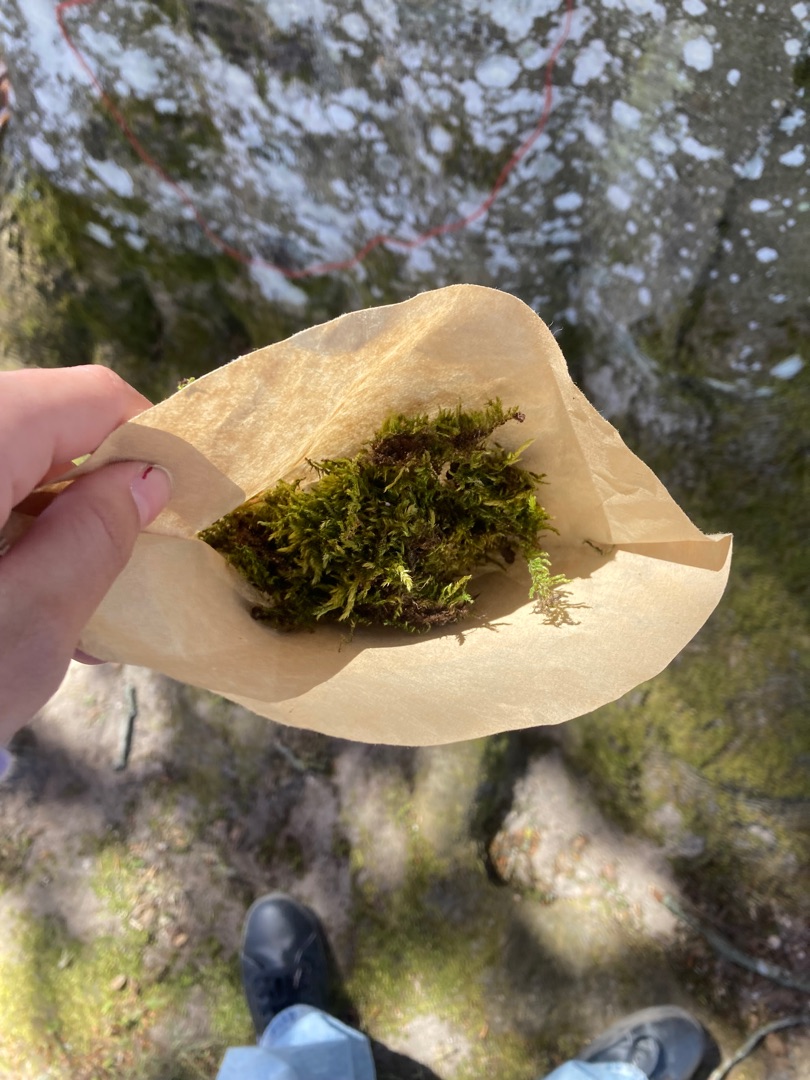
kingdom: Plantae
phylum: Bryophyta
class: Bryopsida
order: Hypnales
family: Hypnaceae
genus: Hypnum
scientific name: Hypnum cupressiforme
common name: Almindelig cypresmos
